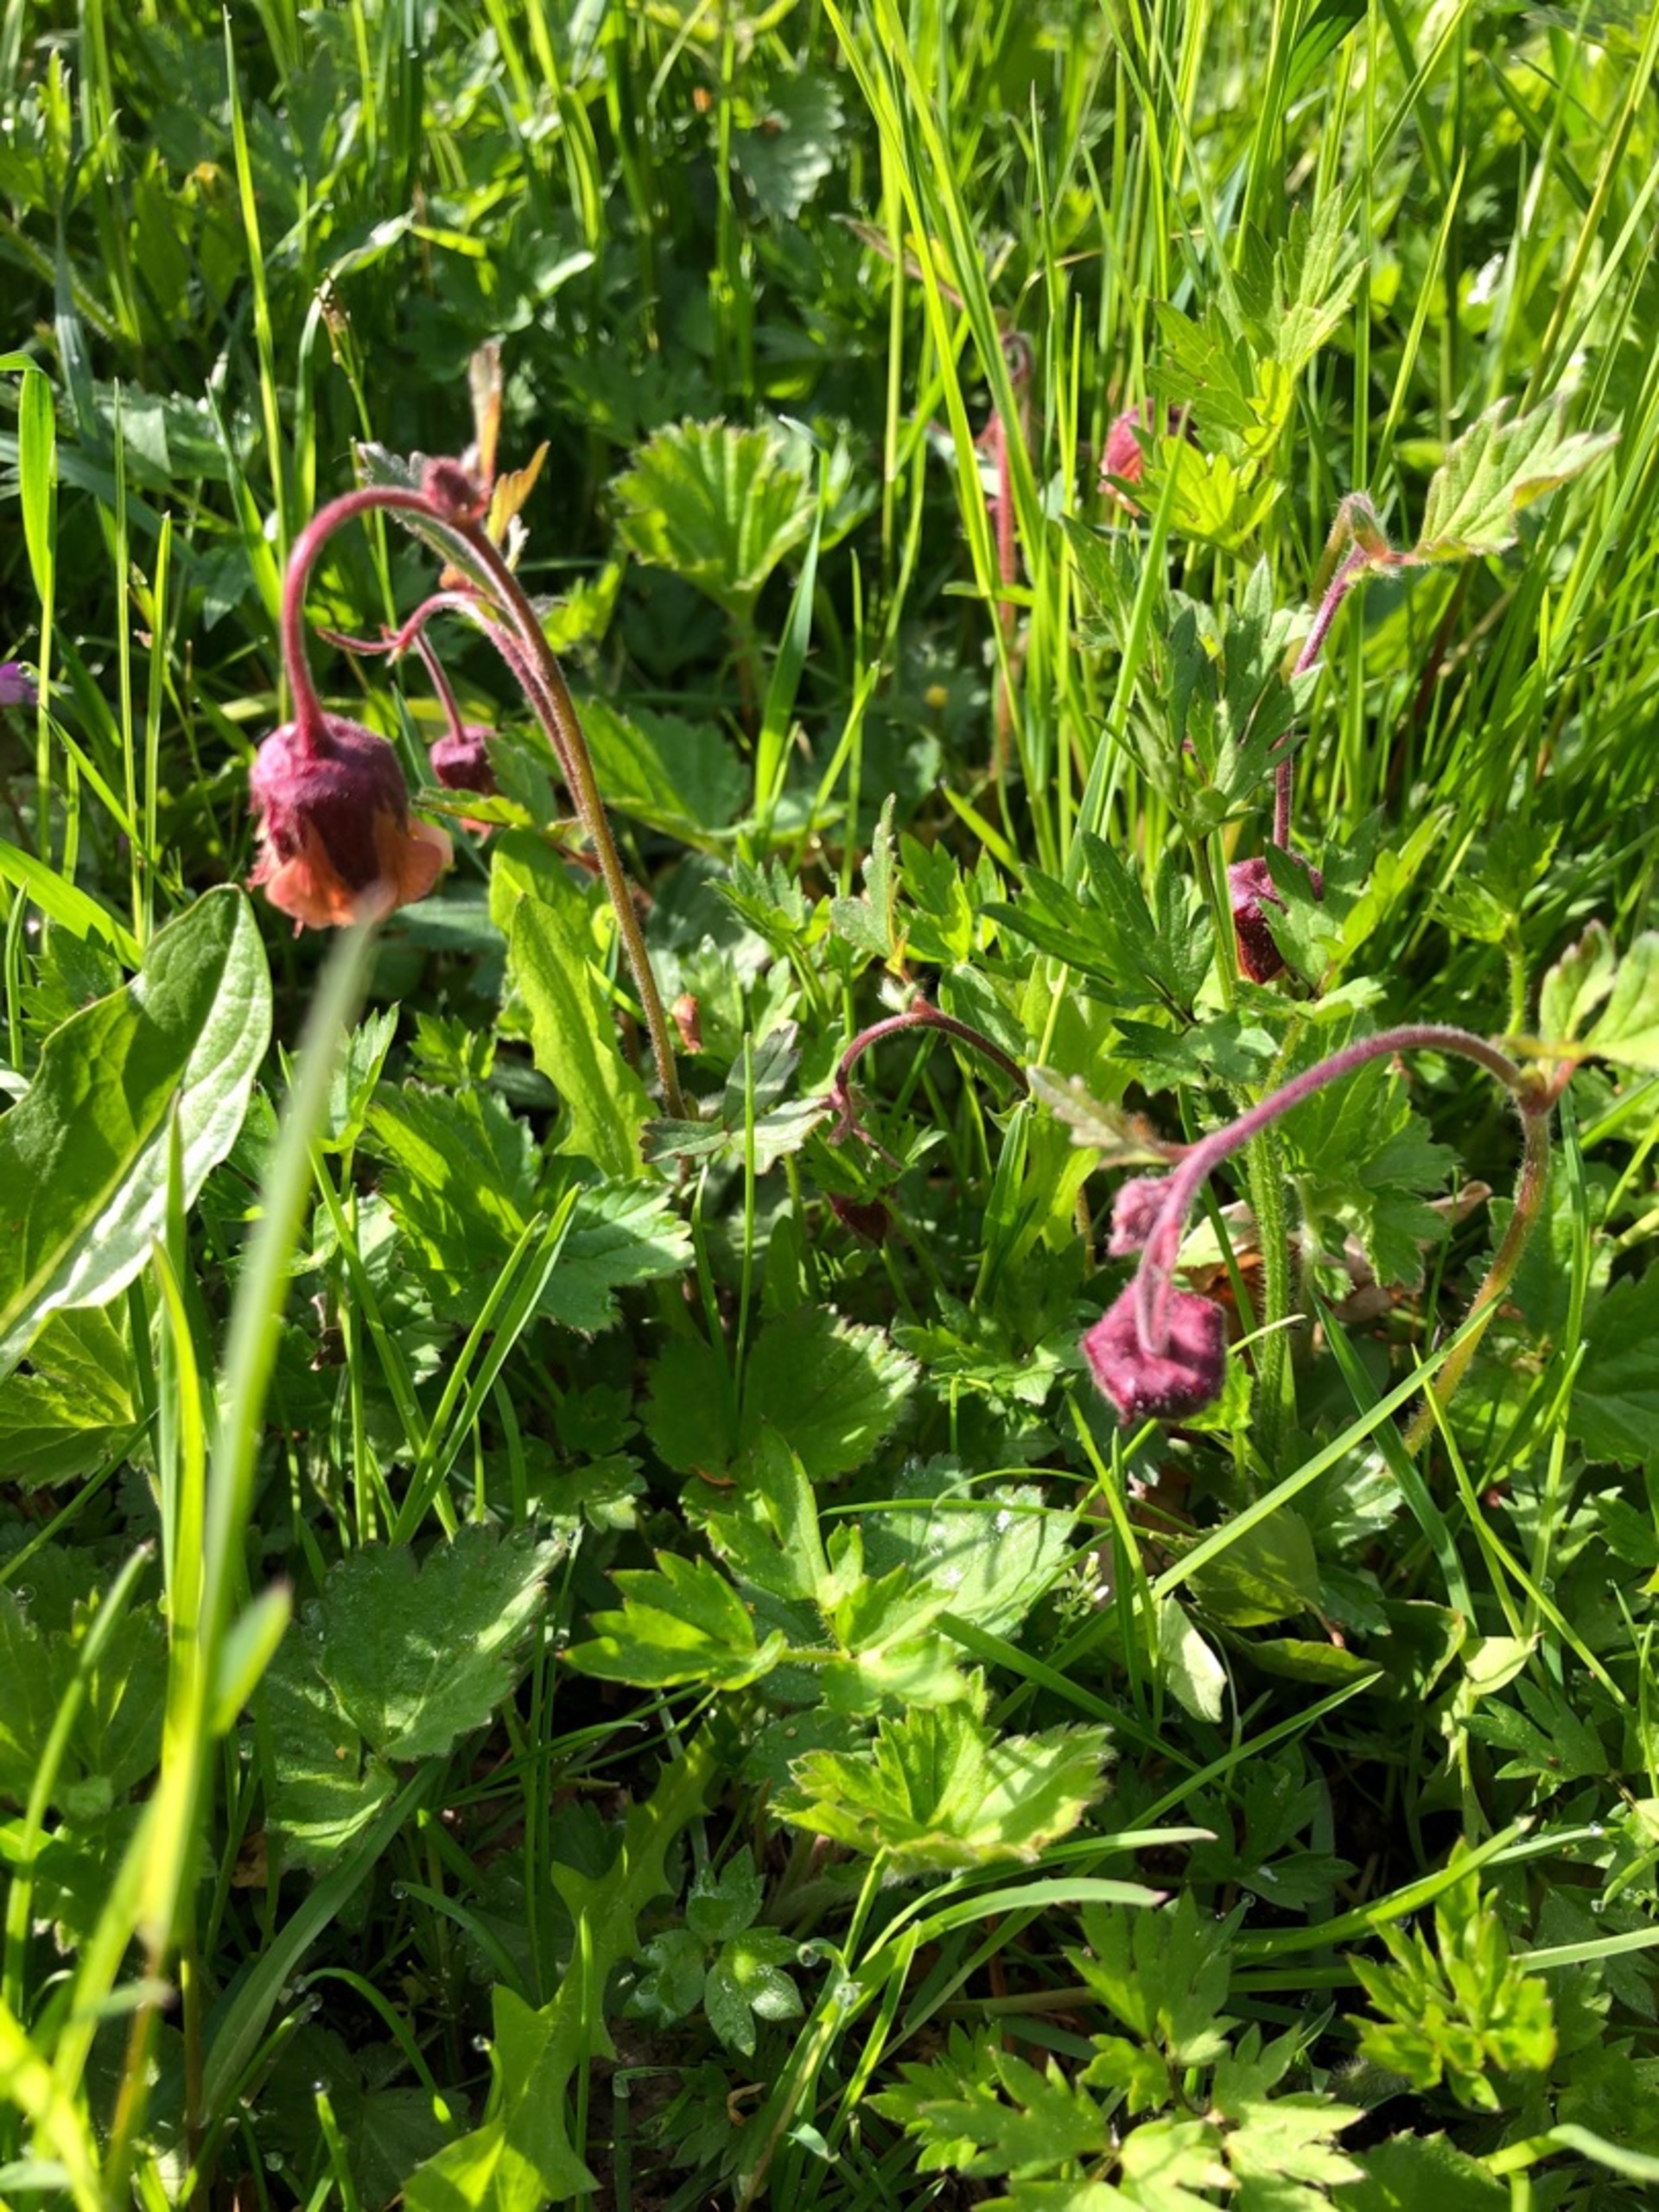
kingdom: Plantae
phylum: Tracheophyta
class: Magnoliopsida
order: Rosales
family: Rosaceae
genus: Geum
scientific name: Geum rivale
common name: Eng-nellikerod
